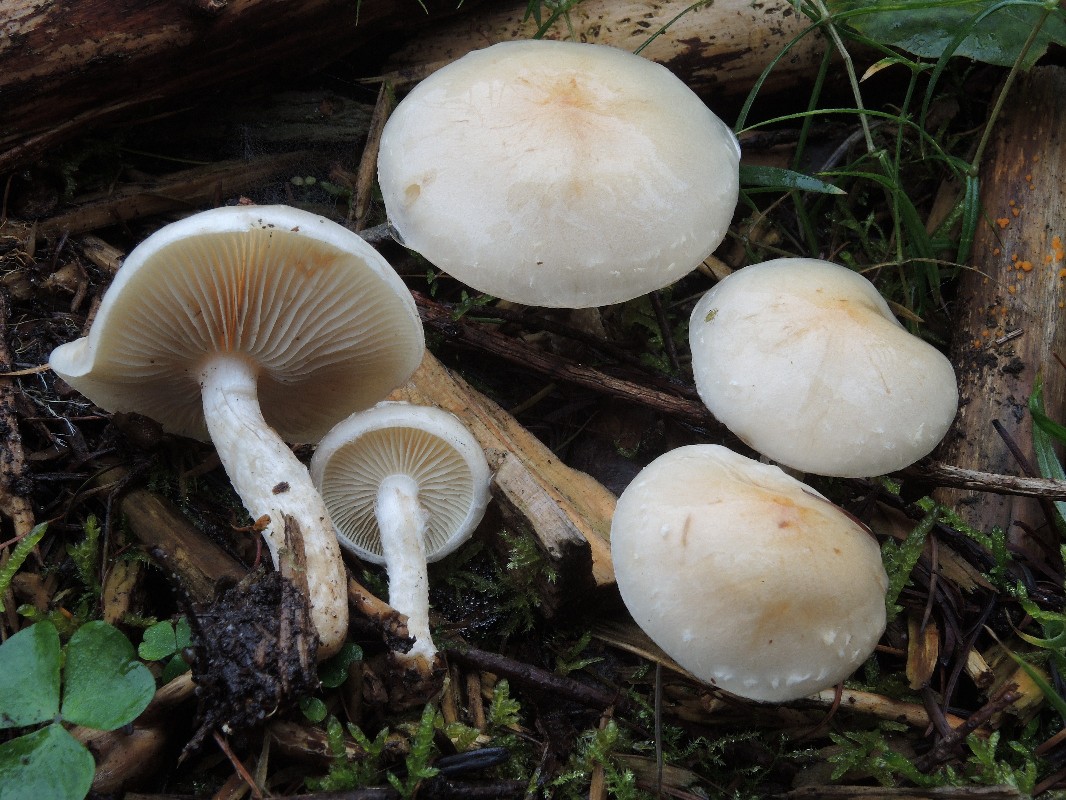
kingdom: Fungi
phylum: Basidiomycota
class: Agaricomycetes
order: Agaricales
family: Strophariaceae
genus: Pholiota
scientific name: Pholiota lenta
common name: løv-skælhat
